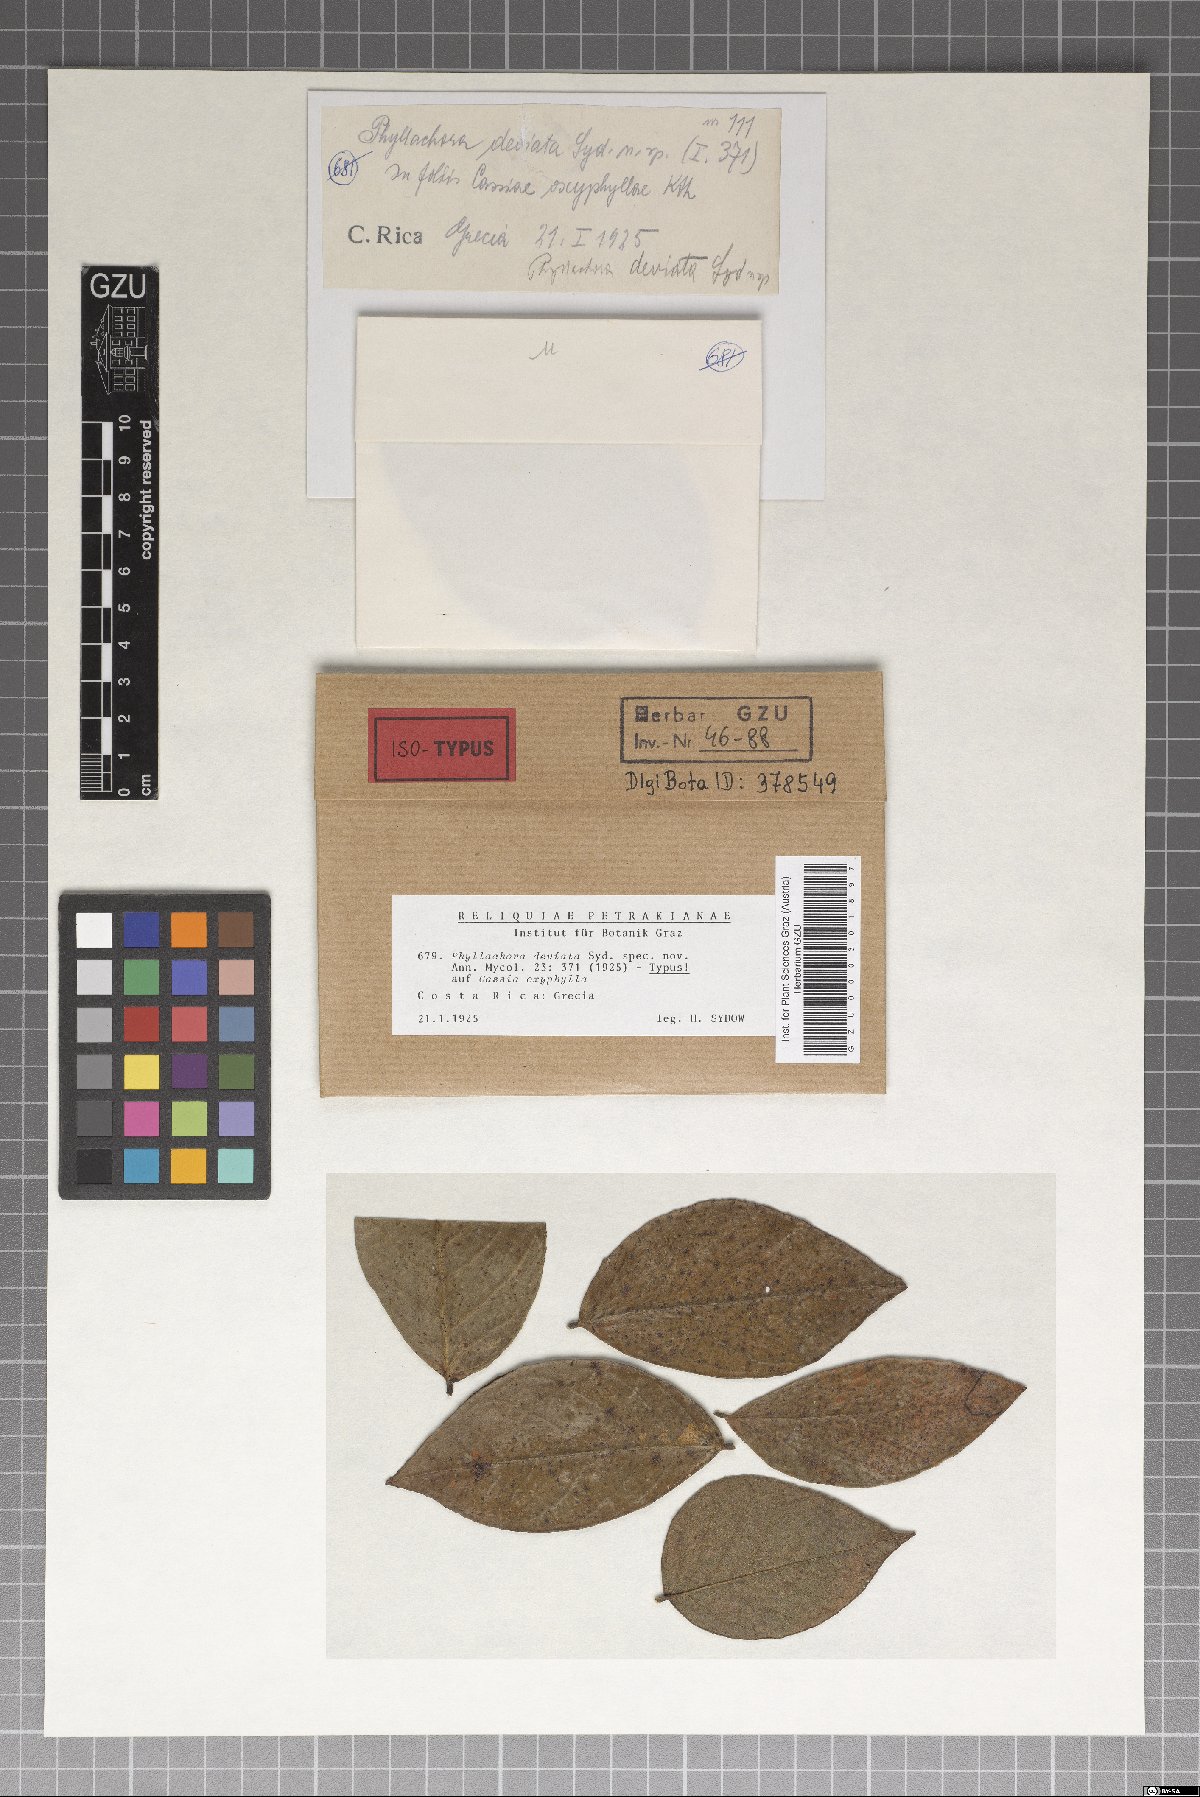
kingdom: Fungi
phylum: Ascomycota
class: Sordariomycetes
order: Phyllachorales
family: Phyllachoraceae
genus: Phyllachora
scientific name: Phyllachora deviata
